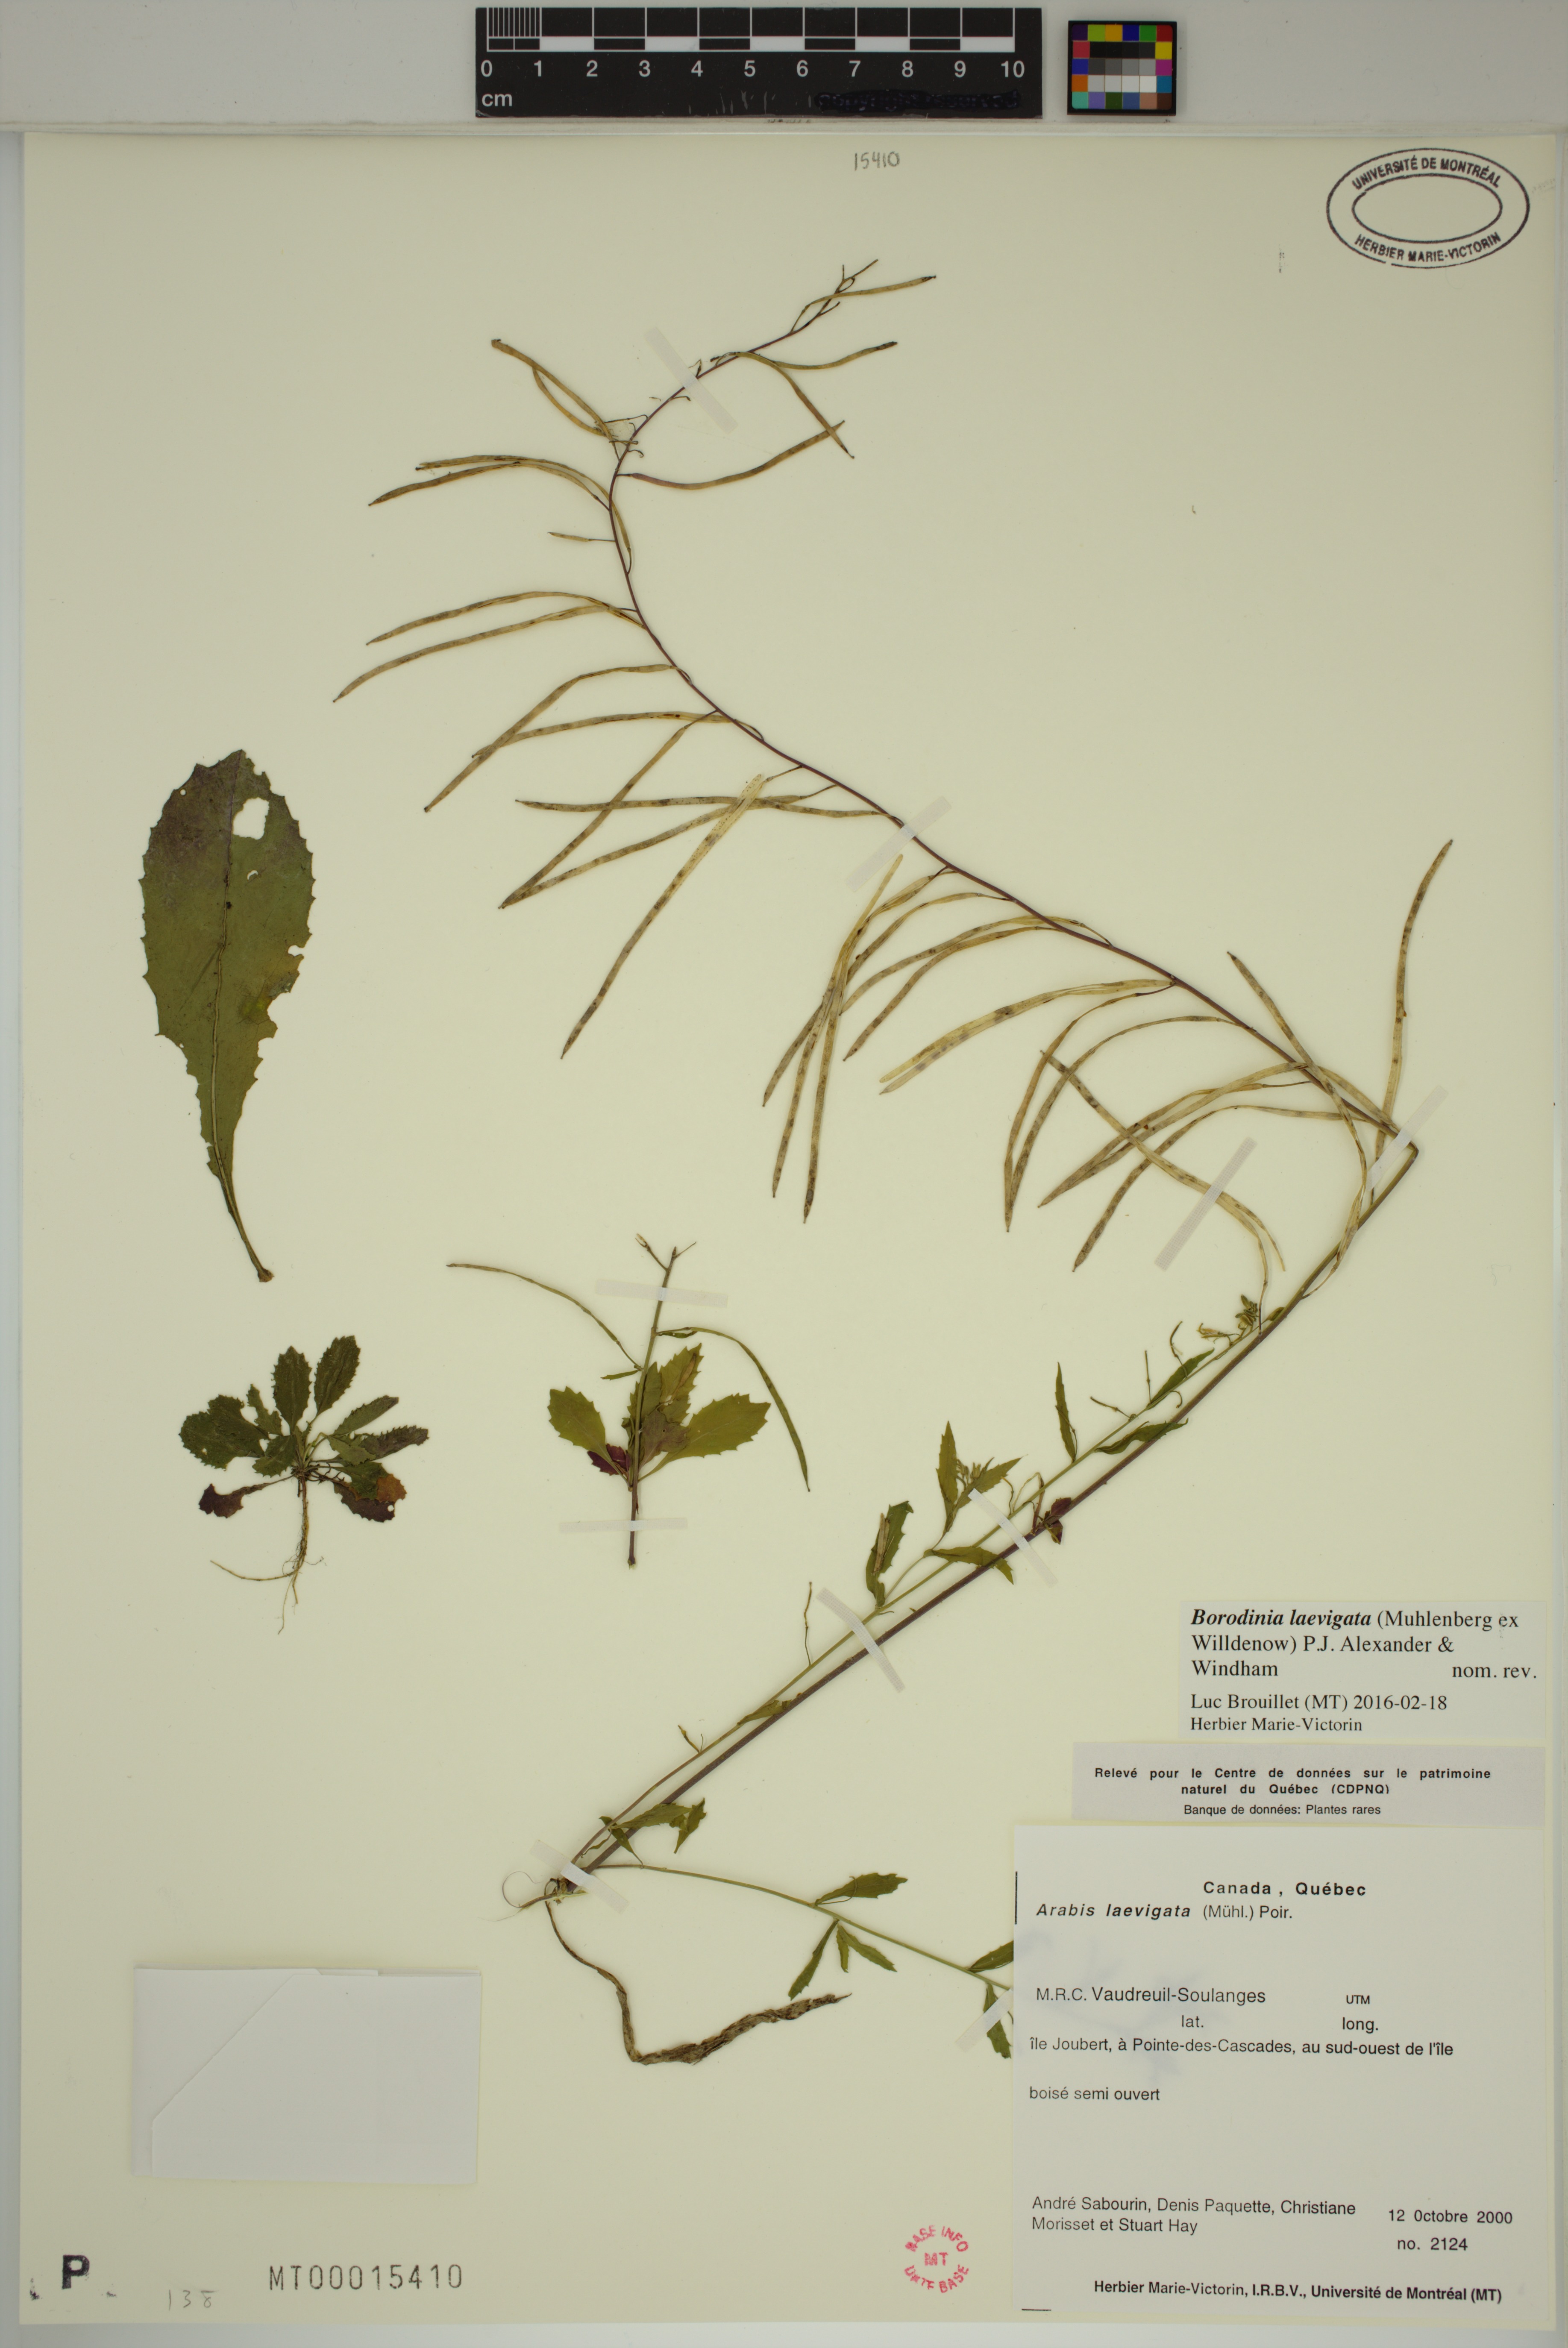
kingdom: Plantae
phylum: Tracheophyta
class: Magnoliopsida
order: Brassicales
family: Brassicaceae
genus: Borodinia
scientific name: Borodinia laevigata
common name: Smooth rockcress
